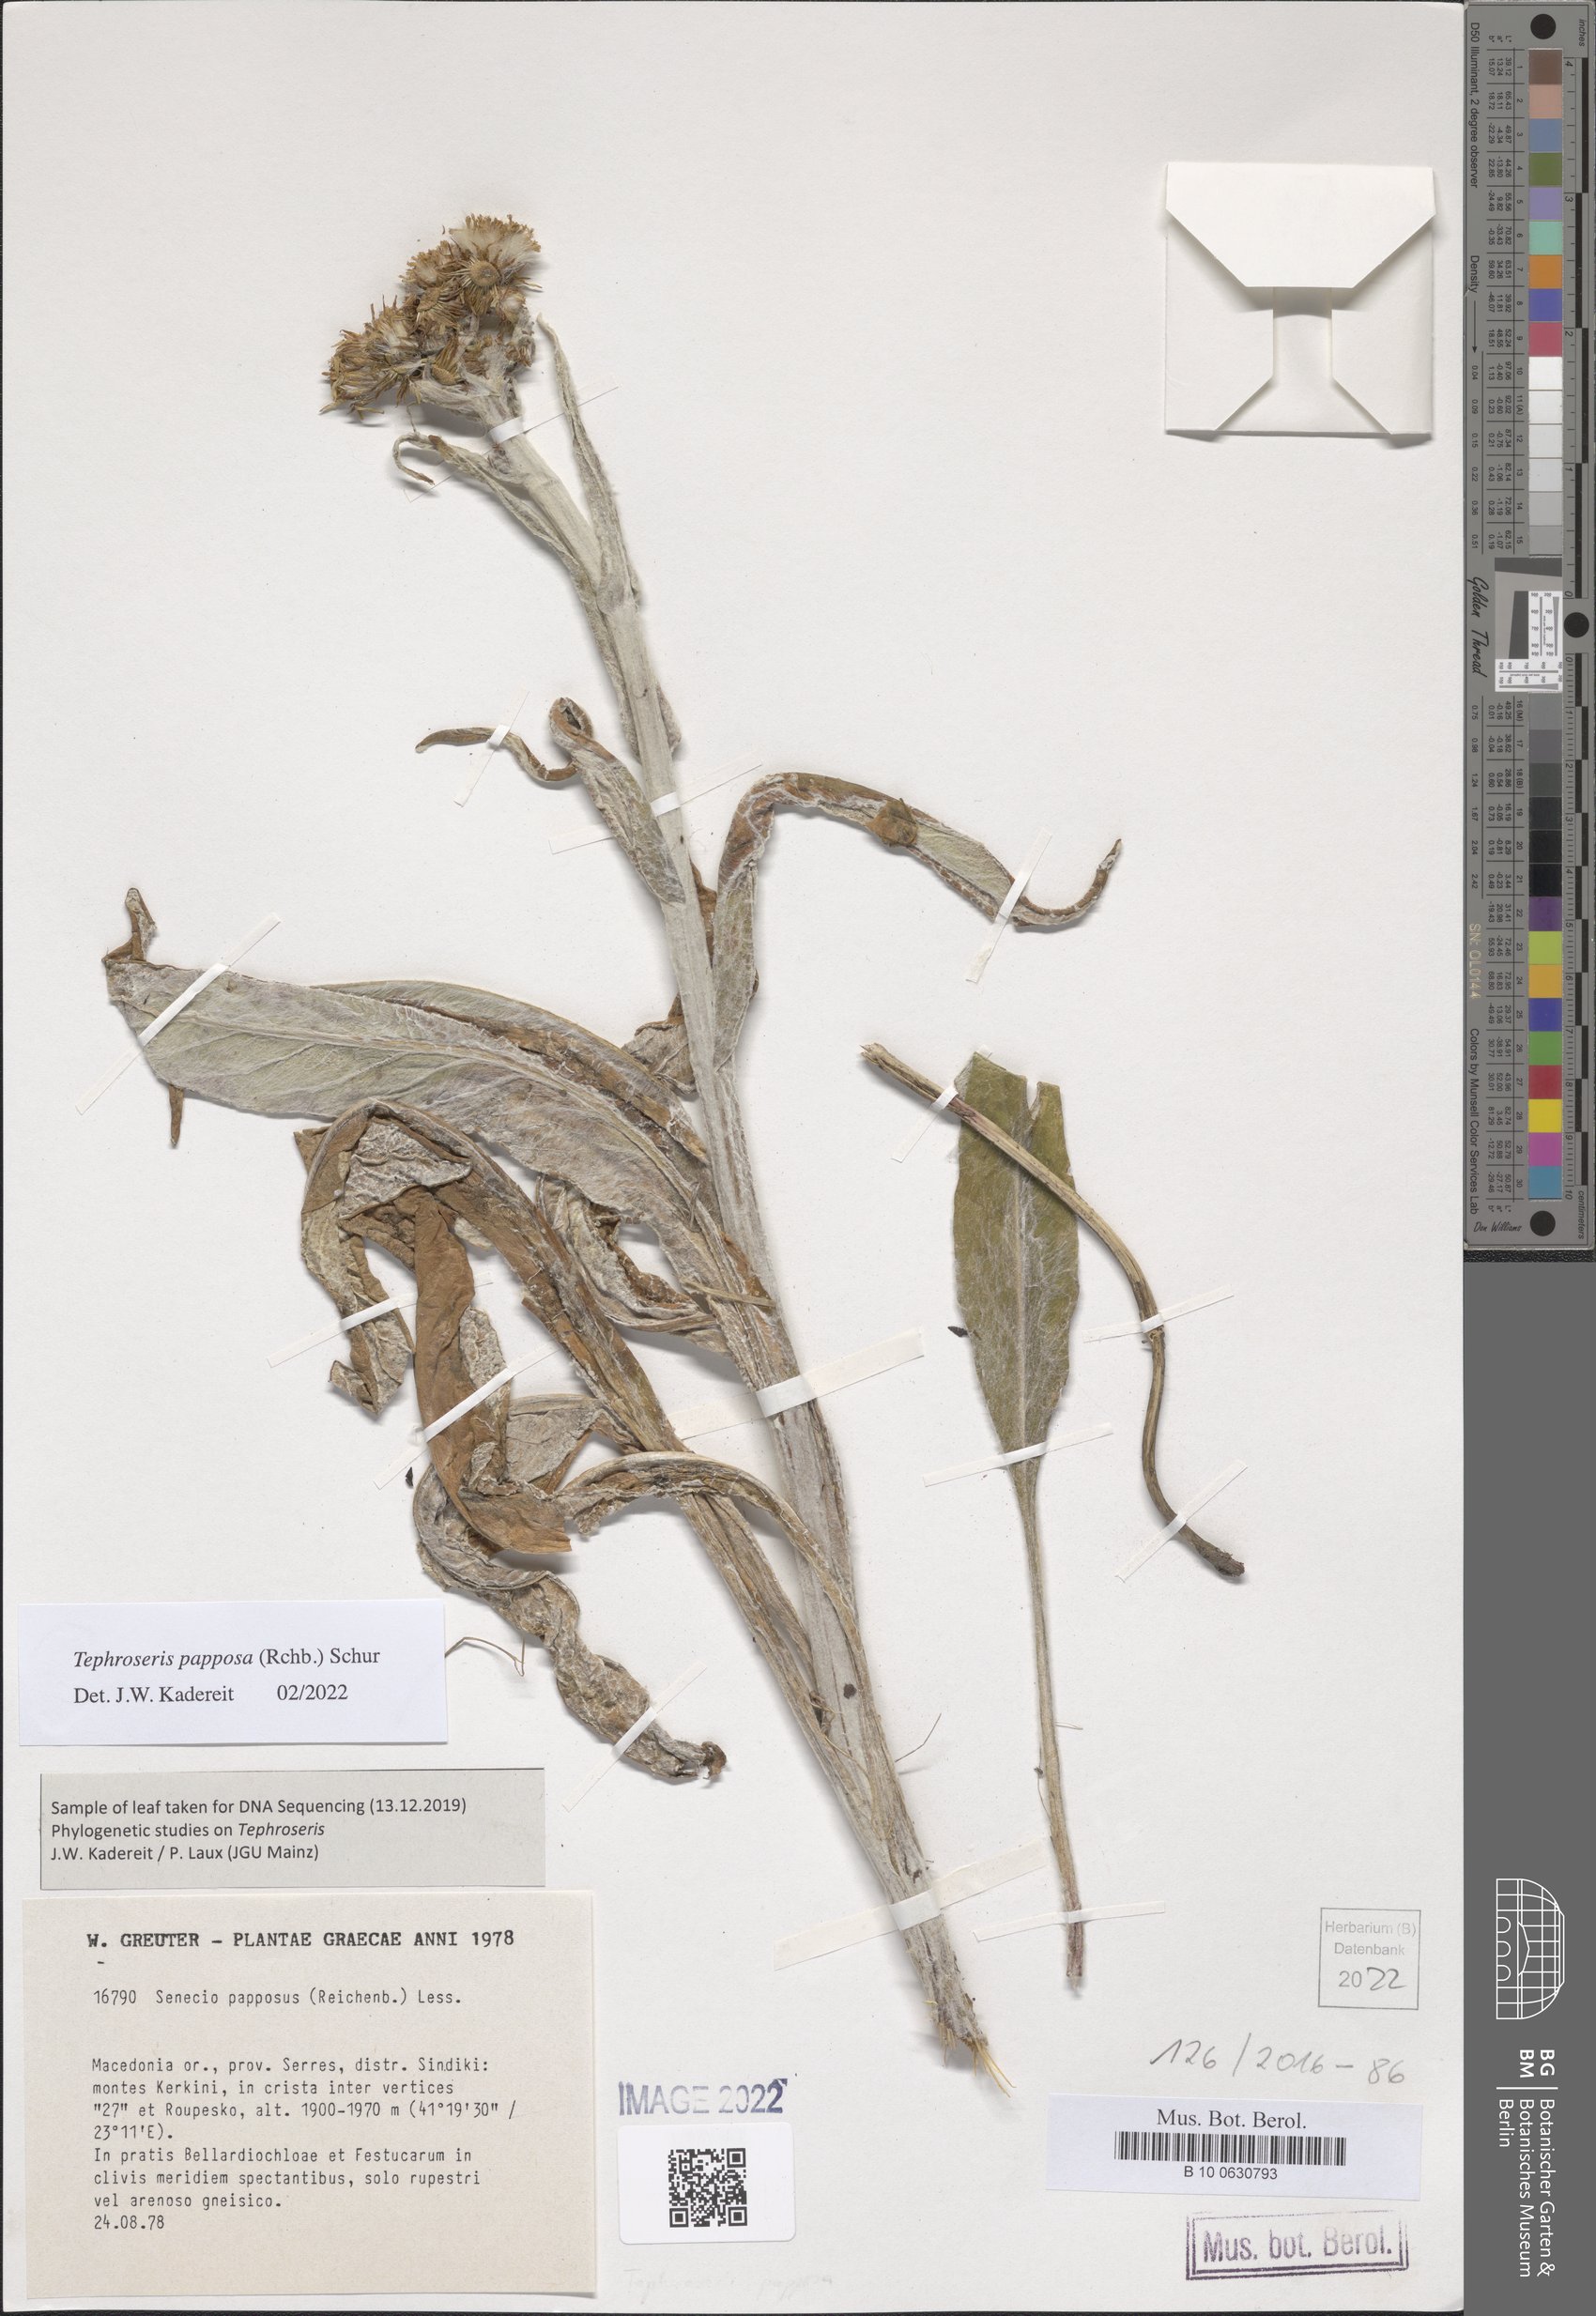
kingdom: Plantae
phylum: Tracheophyta
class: Magnoliopsida
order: Asterales
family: Asteraceae
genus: Tephroseris
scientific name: Tephroseris papposa
